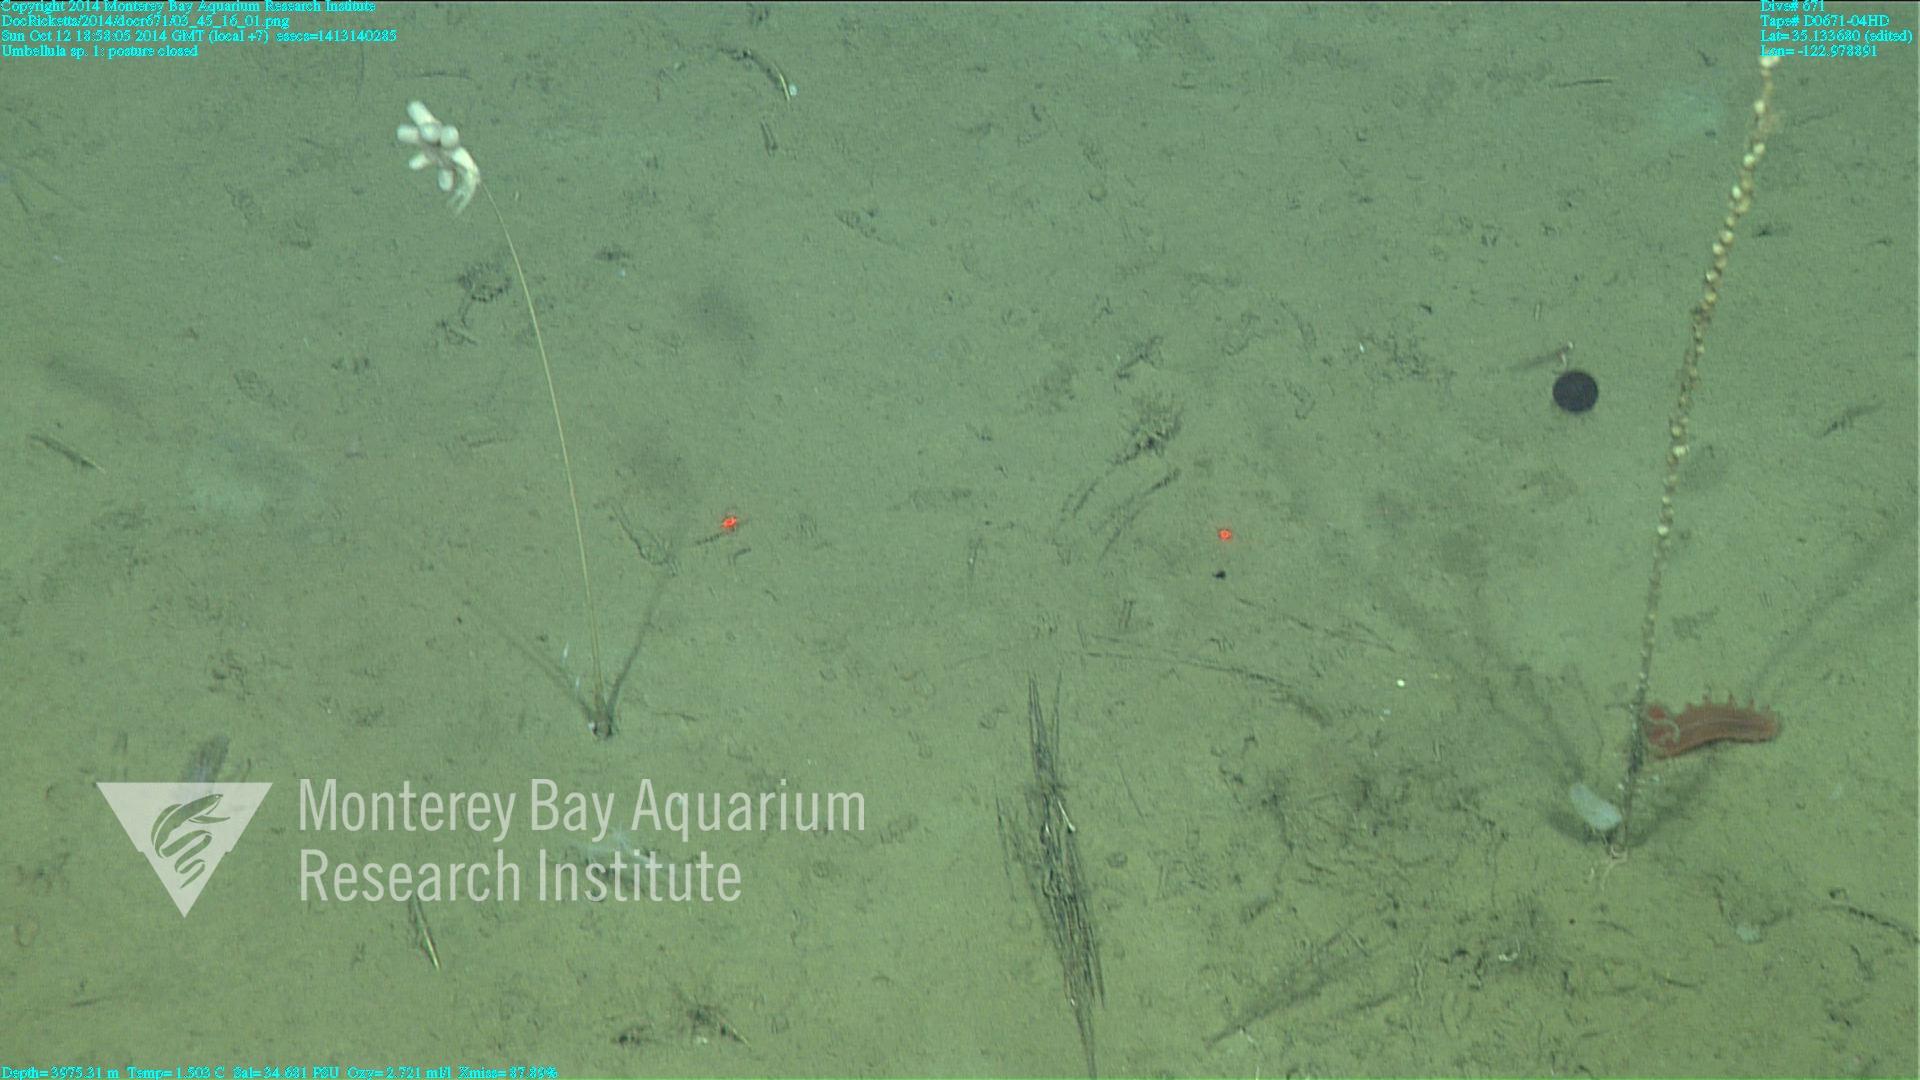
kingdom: Animalia
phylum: Cnidaria
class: Anthozoa
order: Scleralcyonacea
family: Umbellulidae
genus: Umbellula
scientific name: Umbellula
